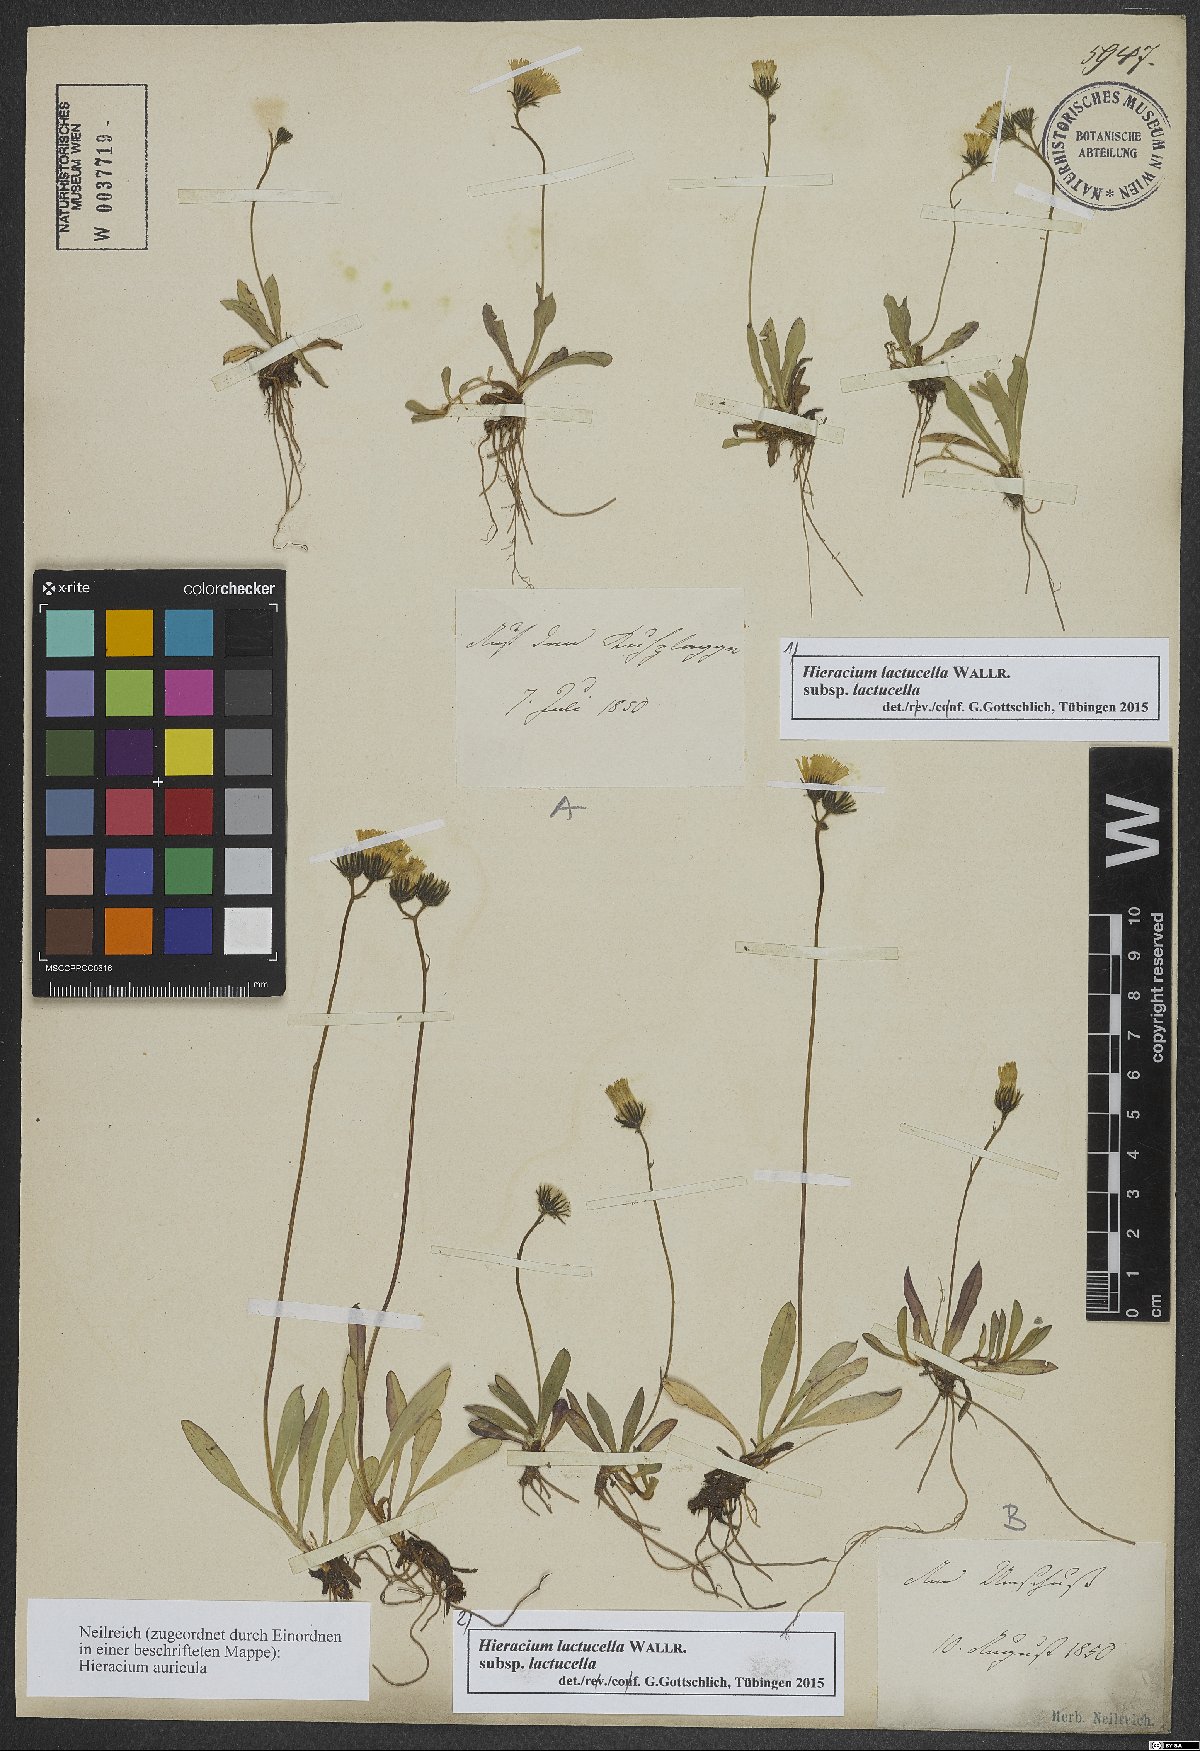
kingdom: Plantae
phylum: Tracheophyta
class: Magnoliopsida
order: Asterales
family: Asteraceae
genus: Pilosella
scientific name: Pilosella lactucella
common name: Glaucous fox-and-cubs
